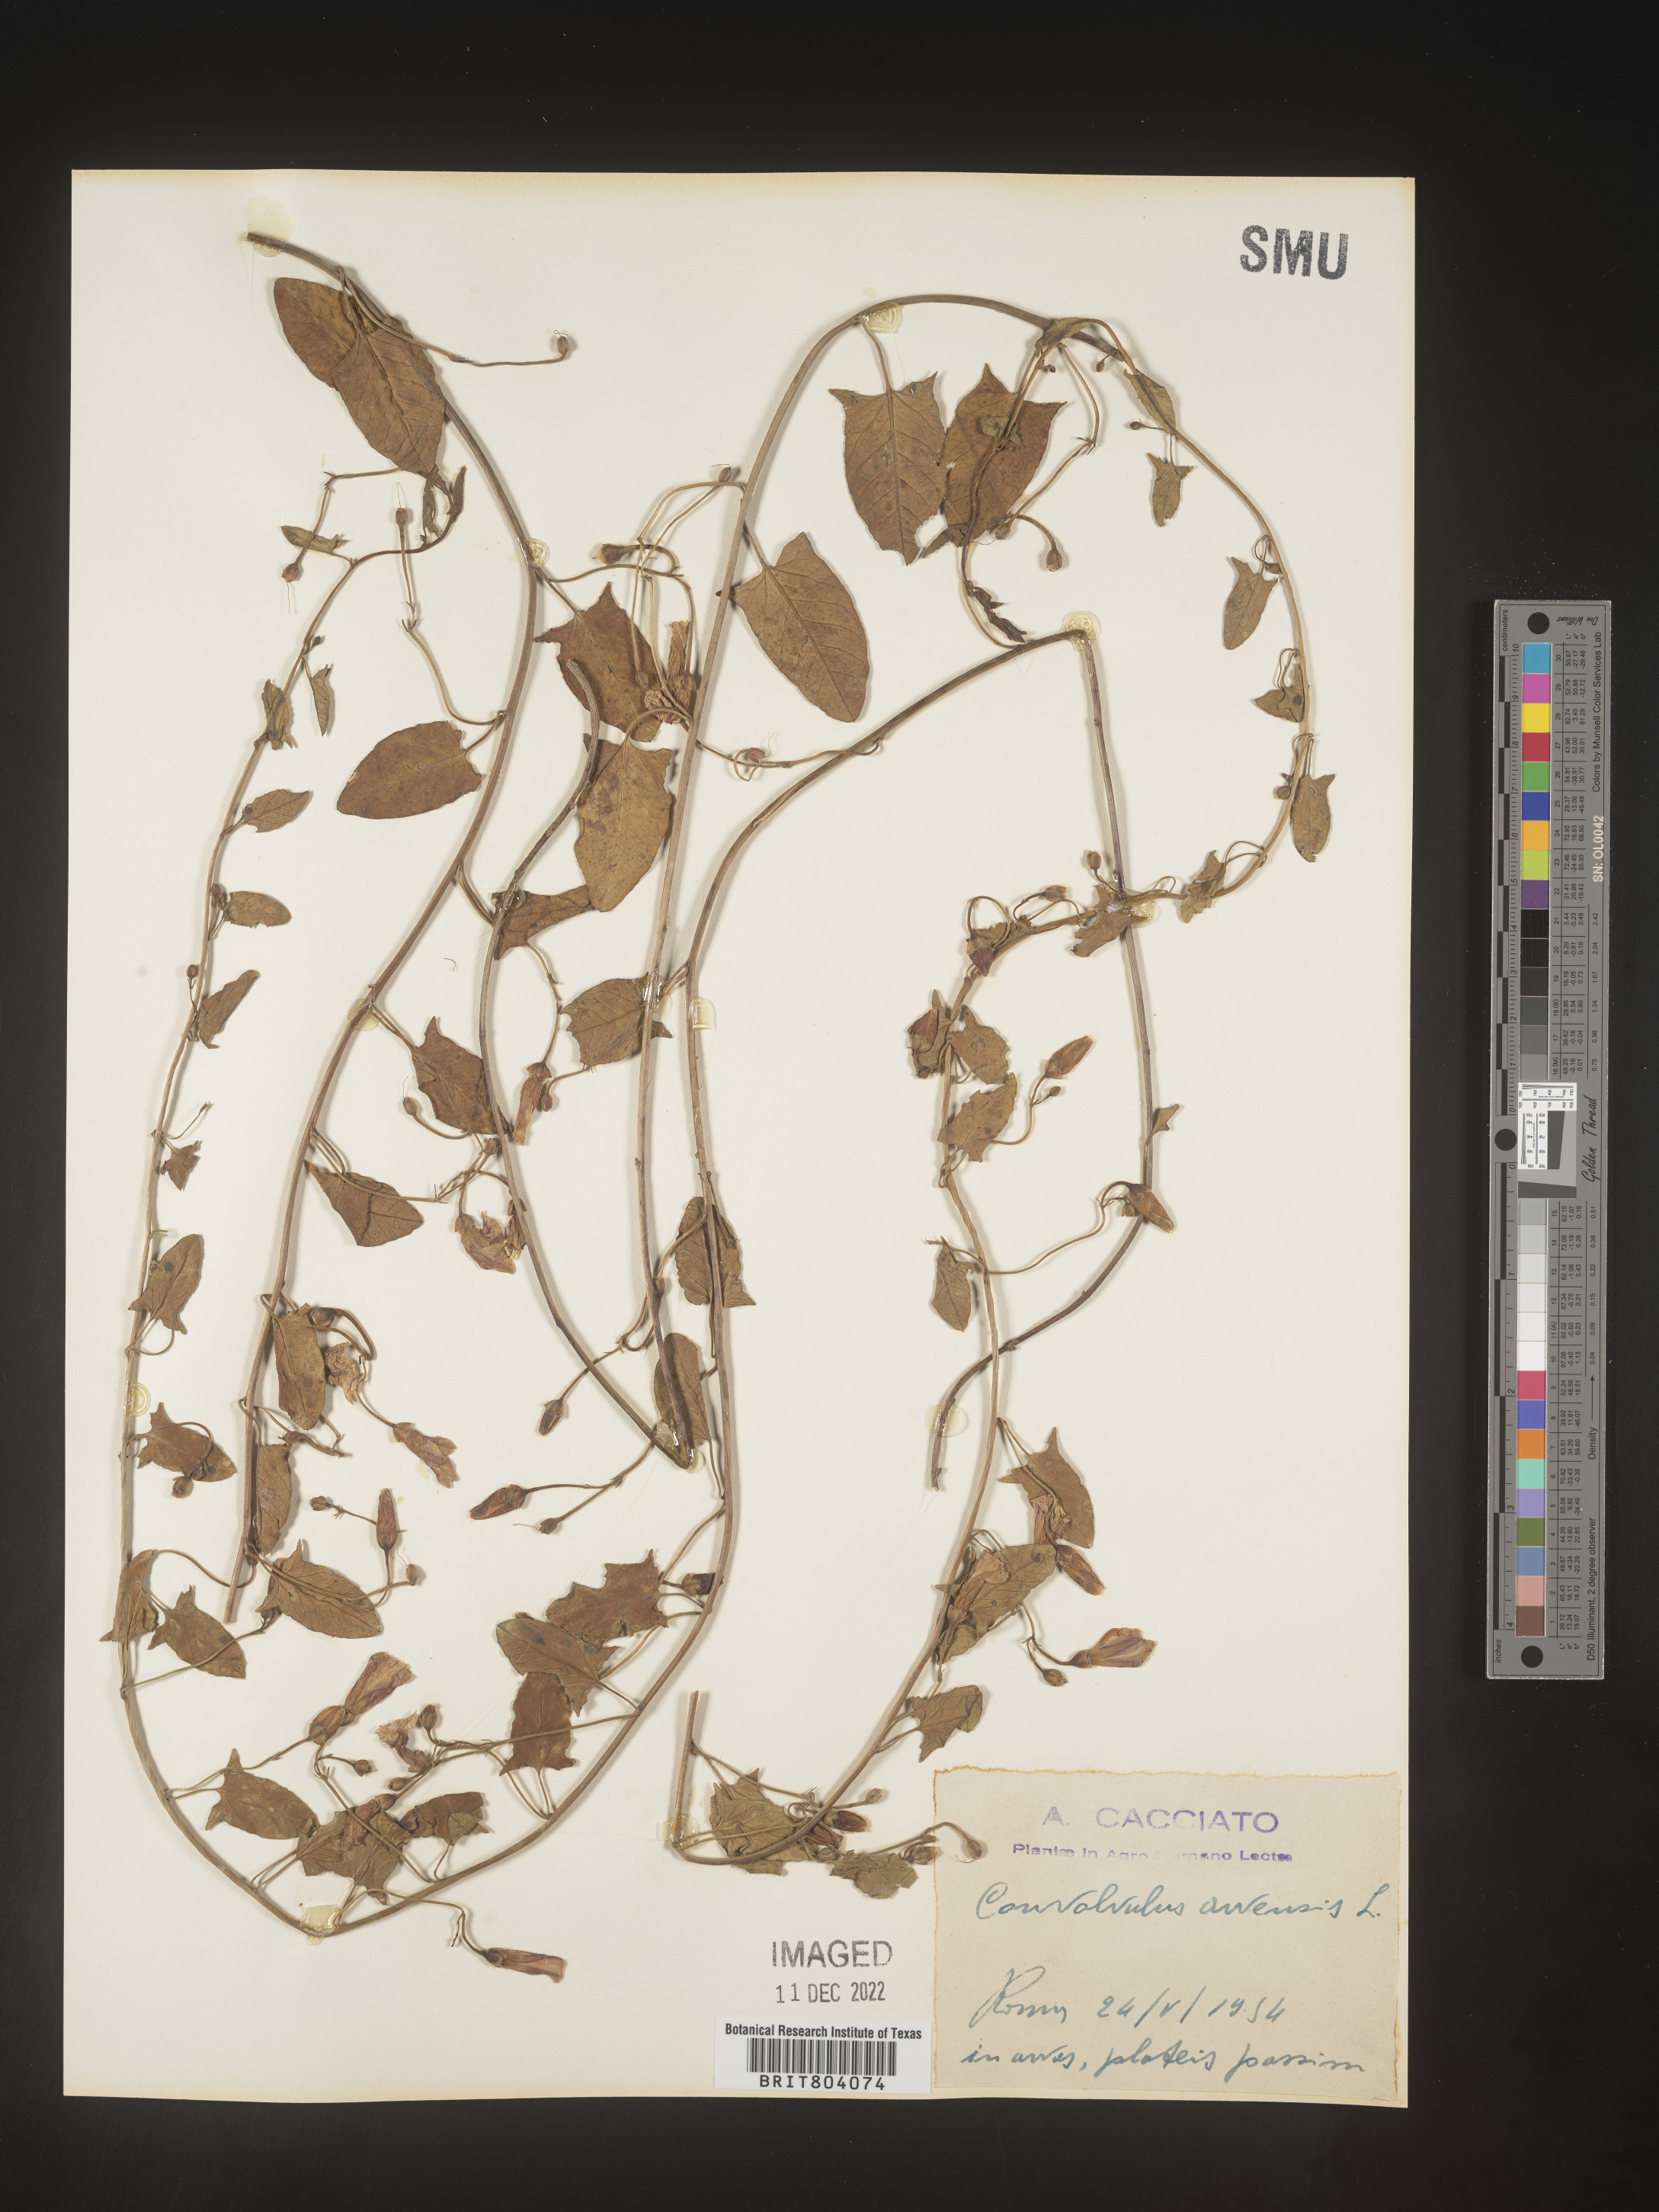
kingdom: Plantae
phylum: Tracheophyta
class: Magnoliopsida
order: Solanales
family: Convolvulaceae
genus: Convolvulus
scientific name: Convolvulus
